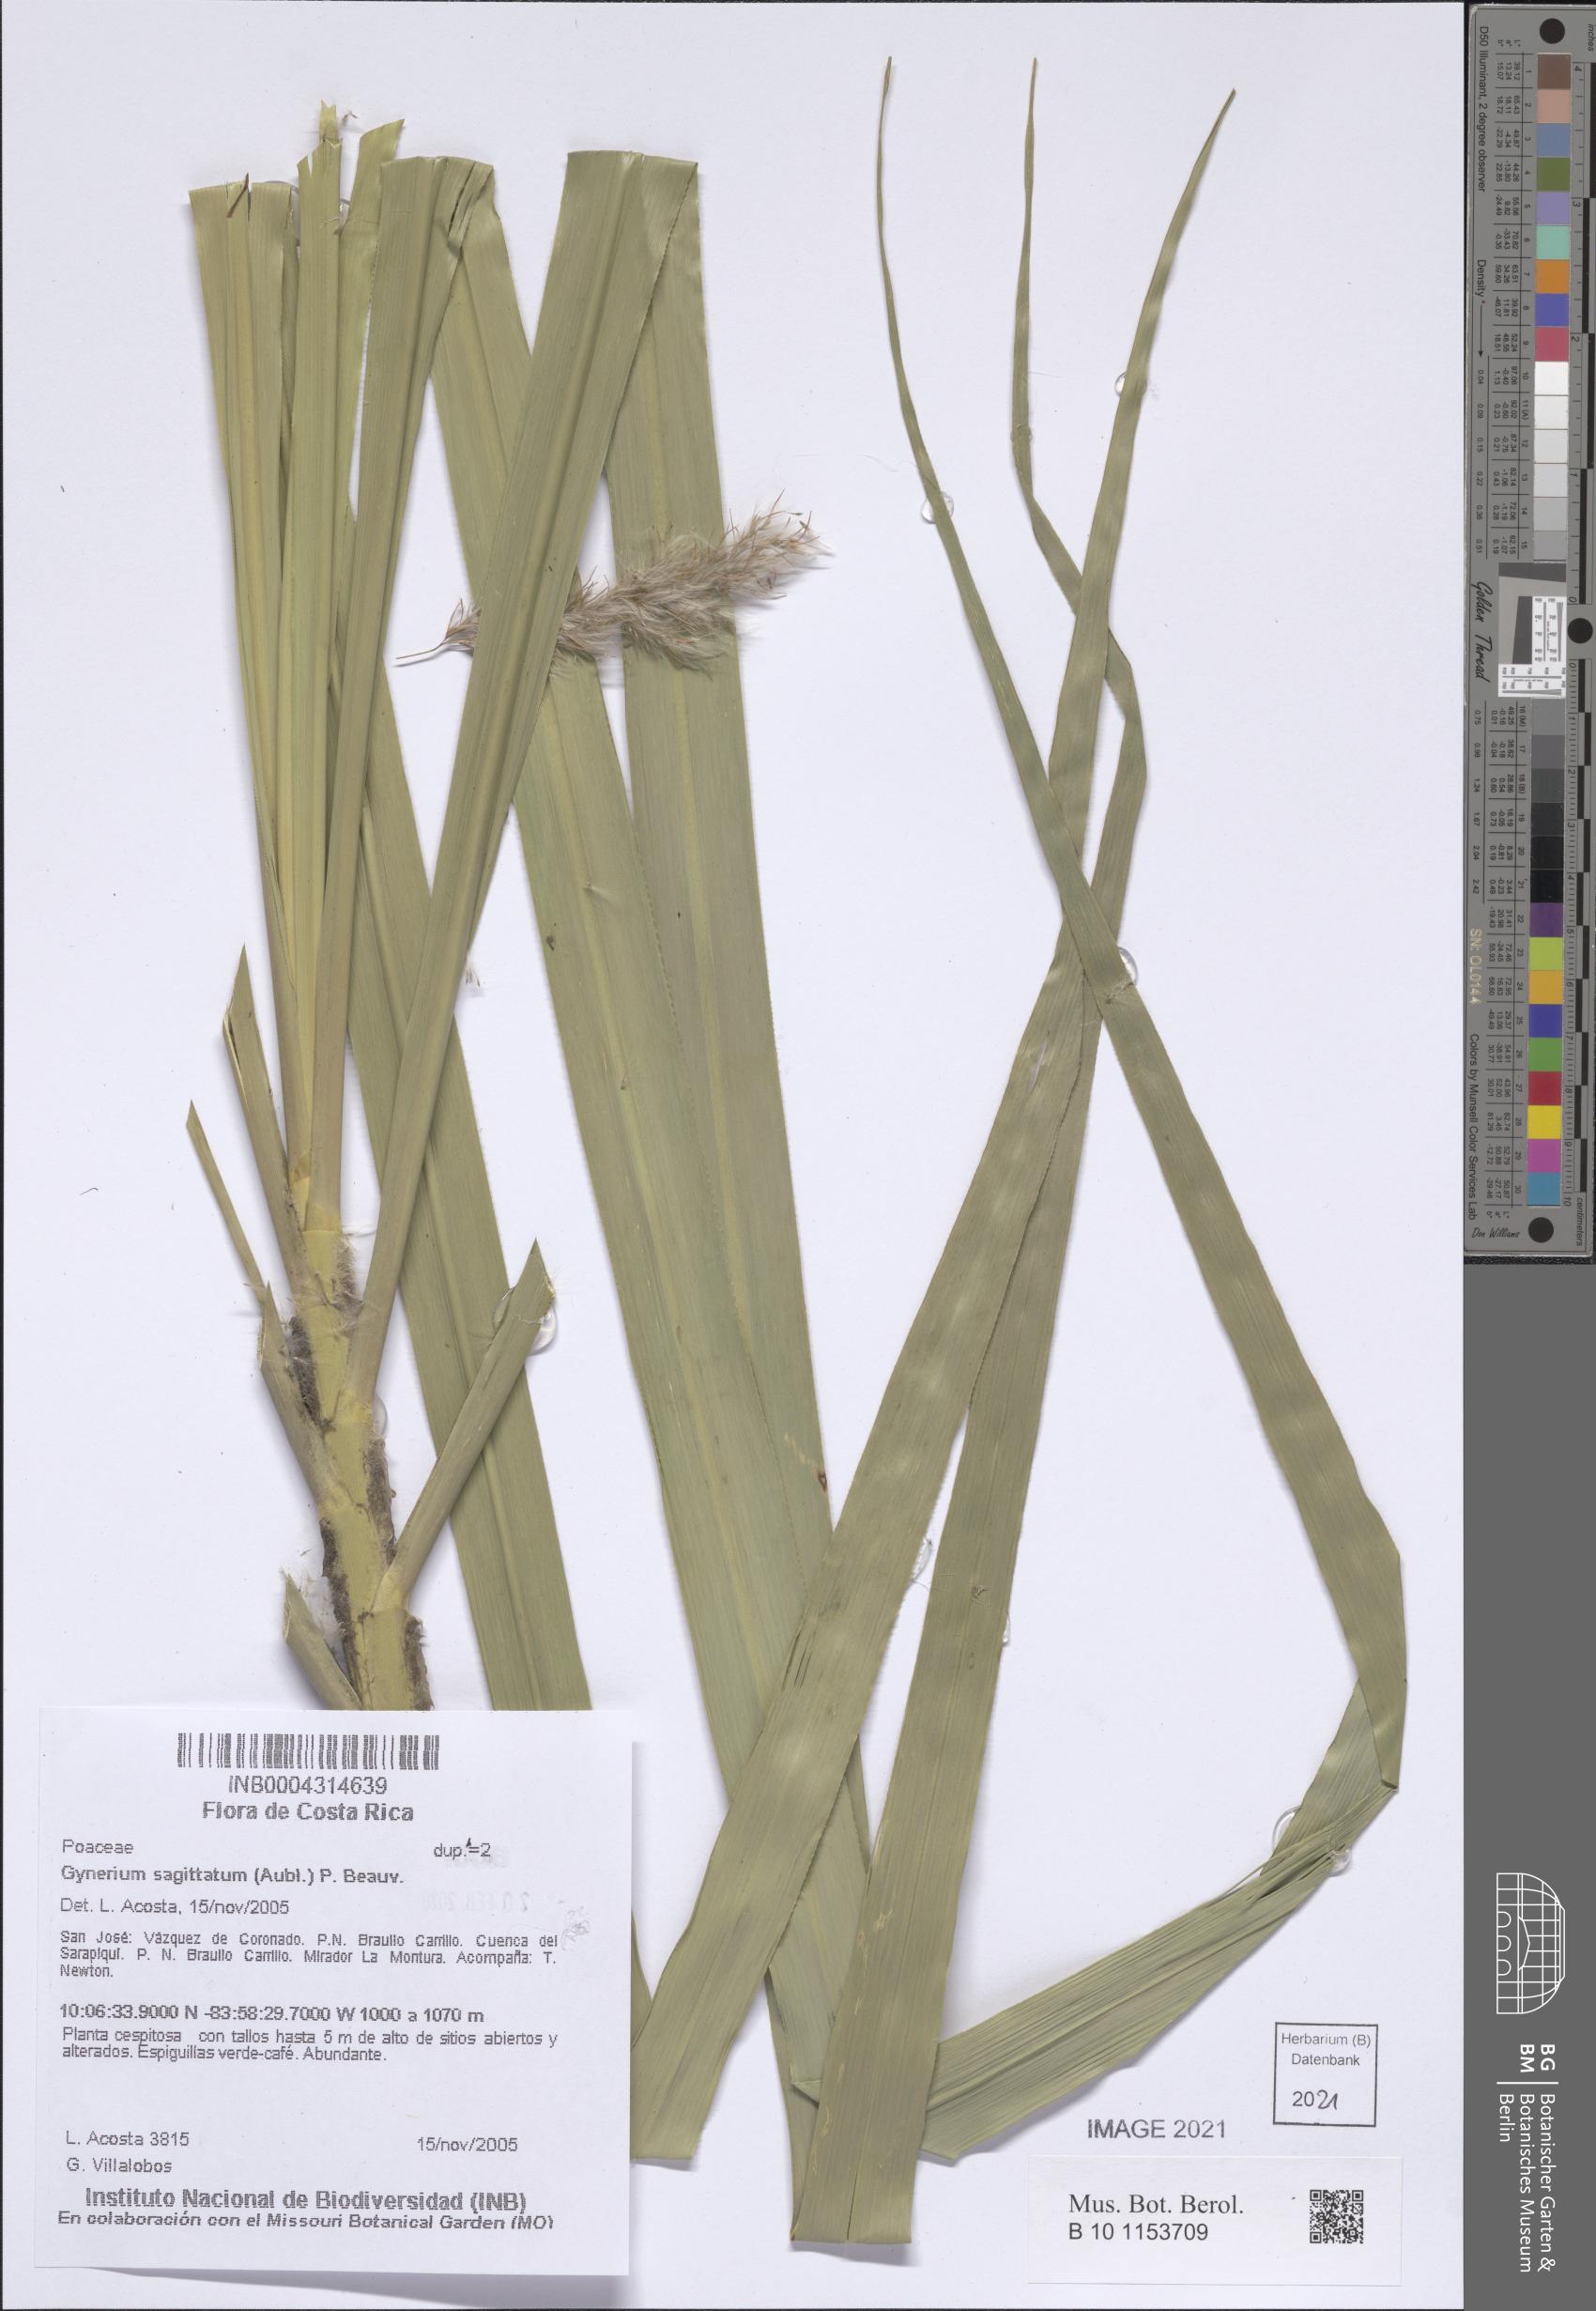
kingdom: Plantae
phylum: Tracheophyta
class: Liliopsida
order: Poales
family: Poaceae
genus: Gynerium
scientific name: Gynerium sagittatum
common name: Wild cane
